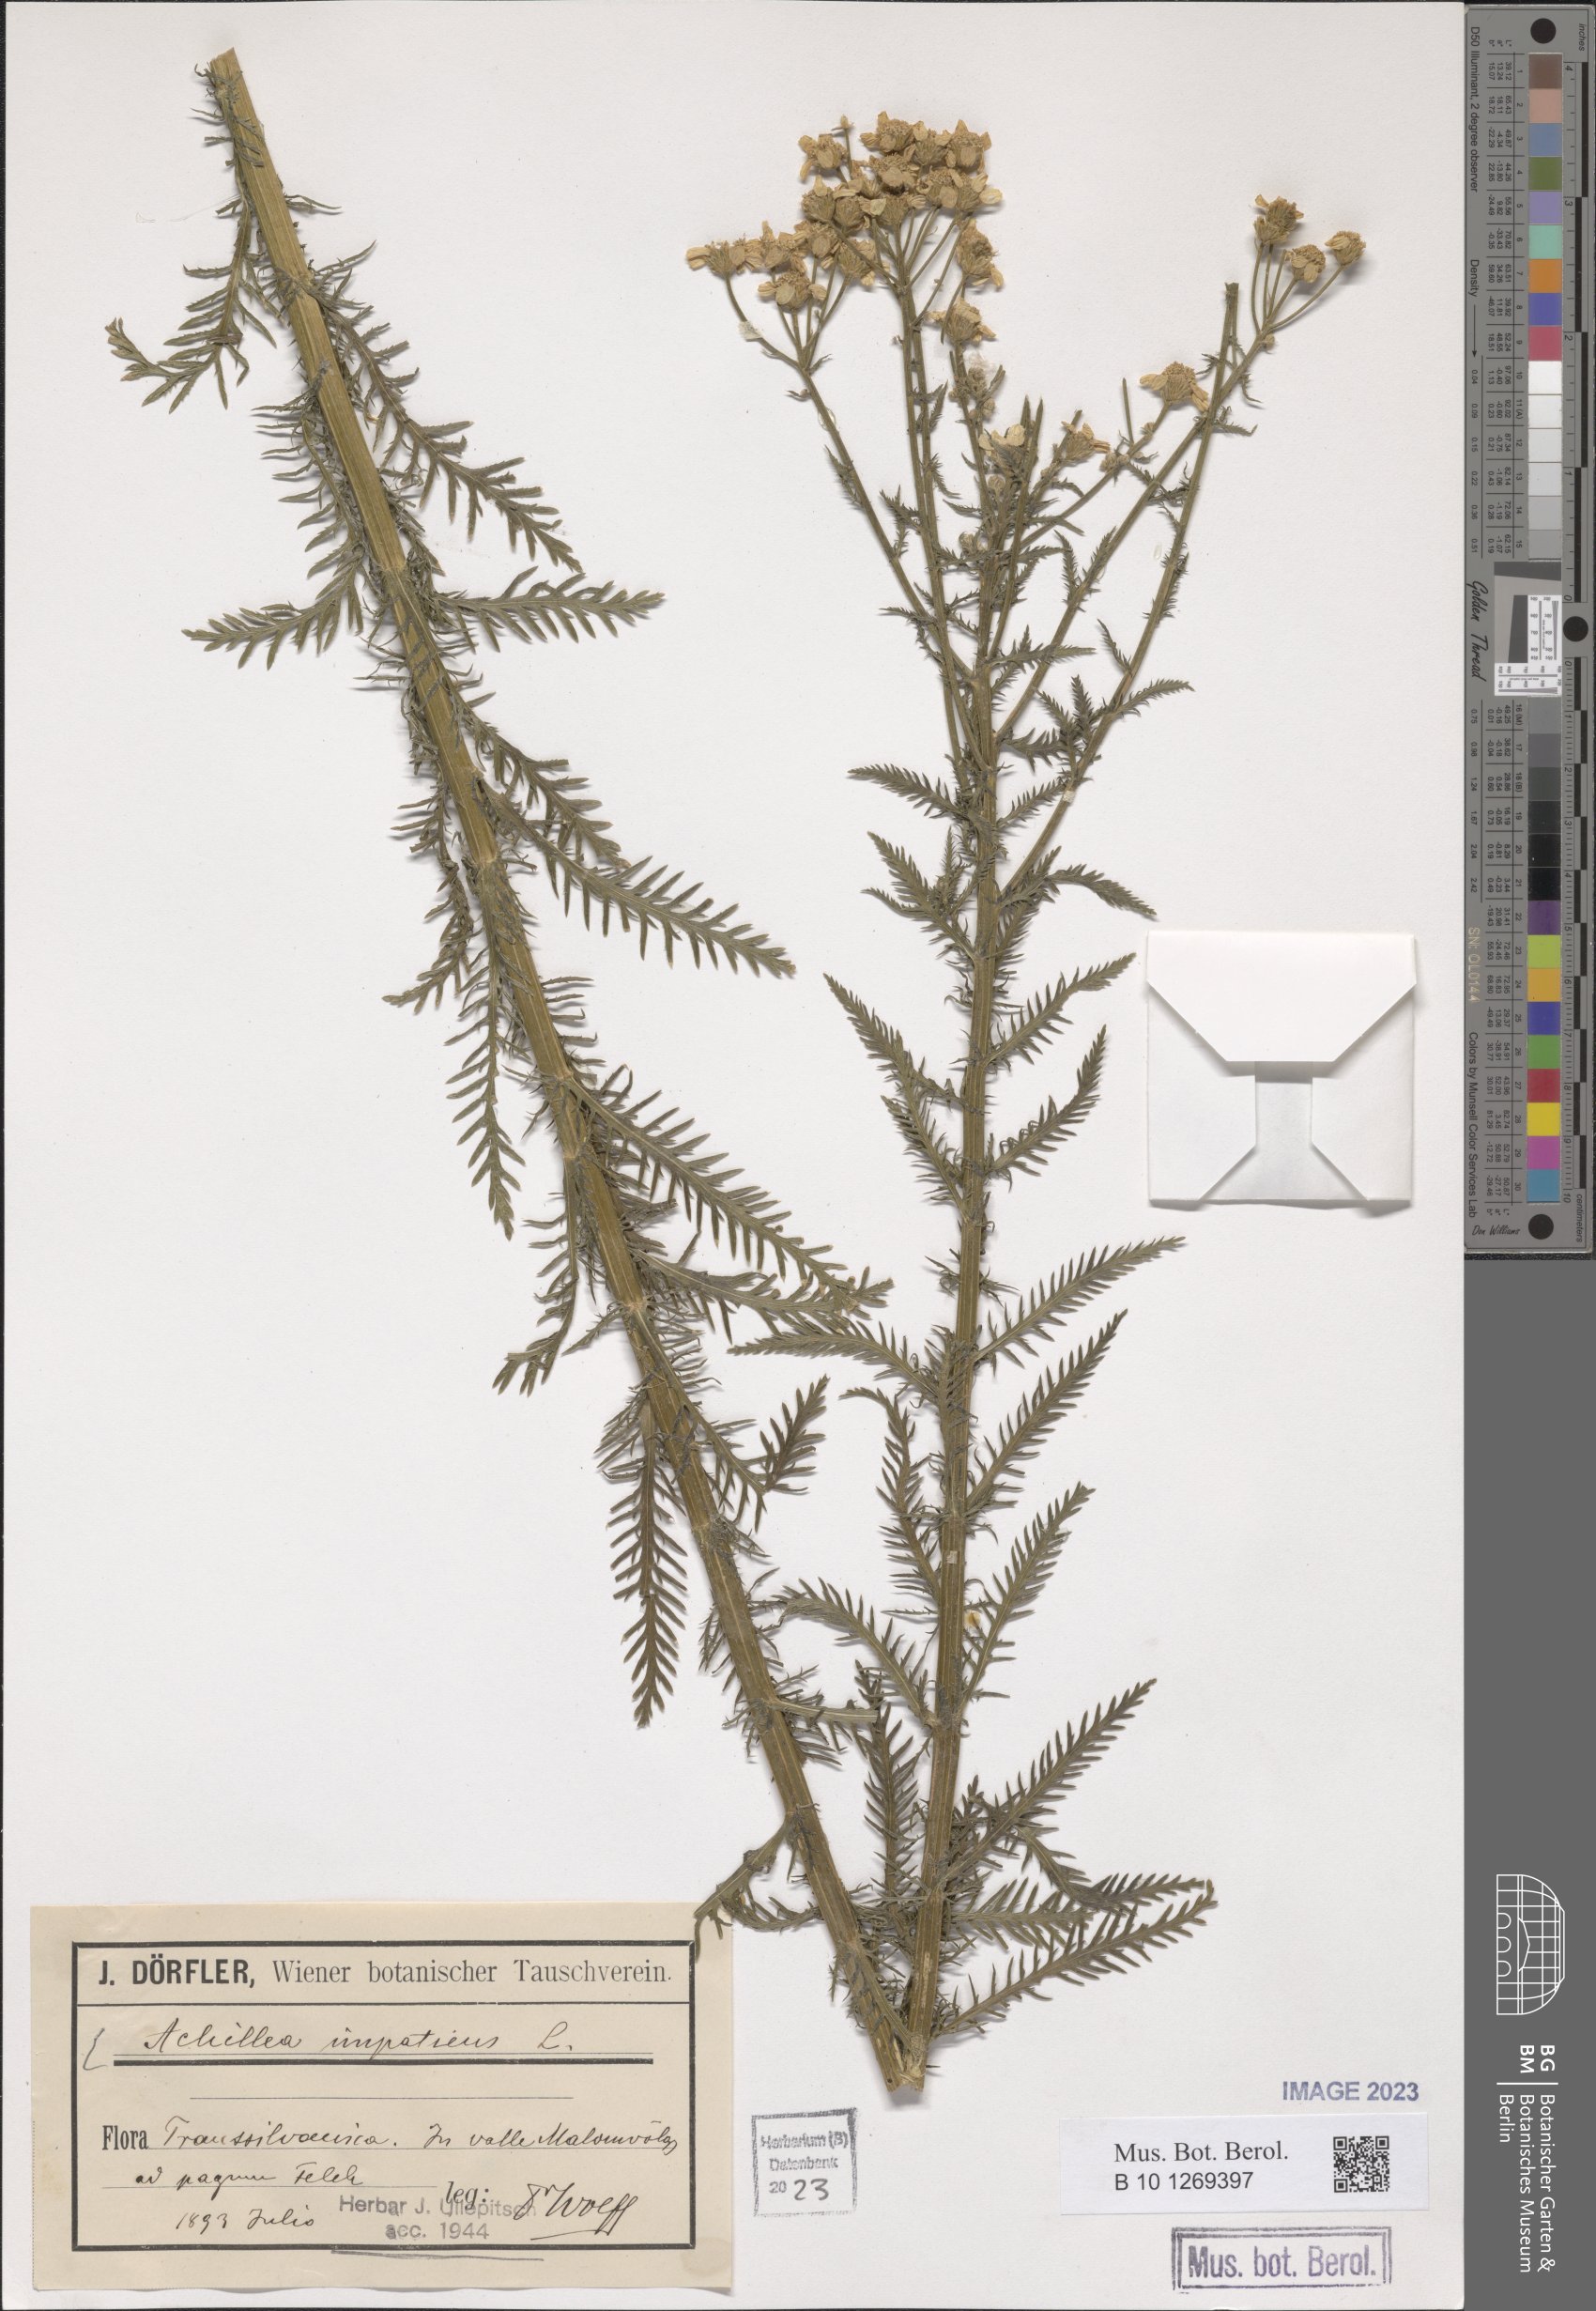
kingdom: Plantae
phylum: Tracheophyta
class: Magnoliopsida
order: Asterales
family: Asteraceae
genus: Achillea
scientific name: Achillea impatiens
